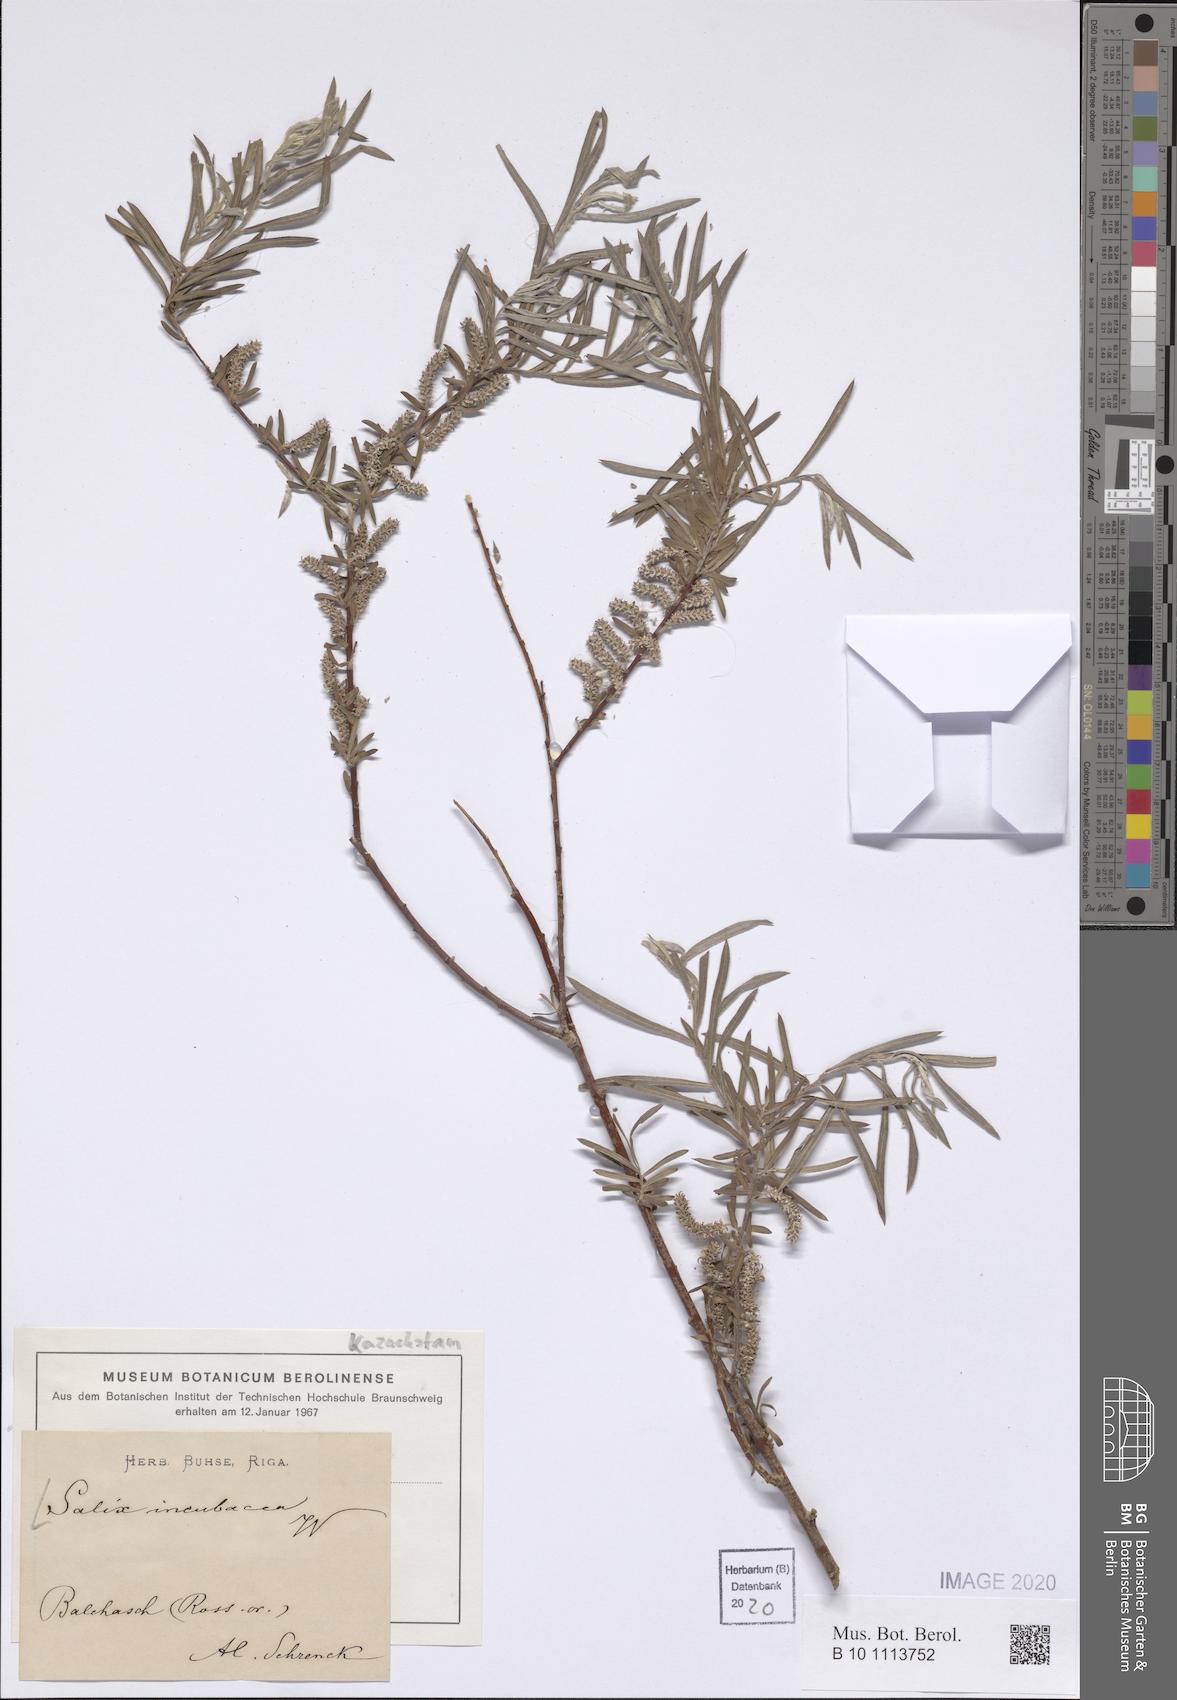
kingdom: Plantae
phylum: Tracheophyta
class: Magnoliopsida
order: Malpighiales
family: Salicaceae
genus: Salix
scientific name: Salix incubacea
